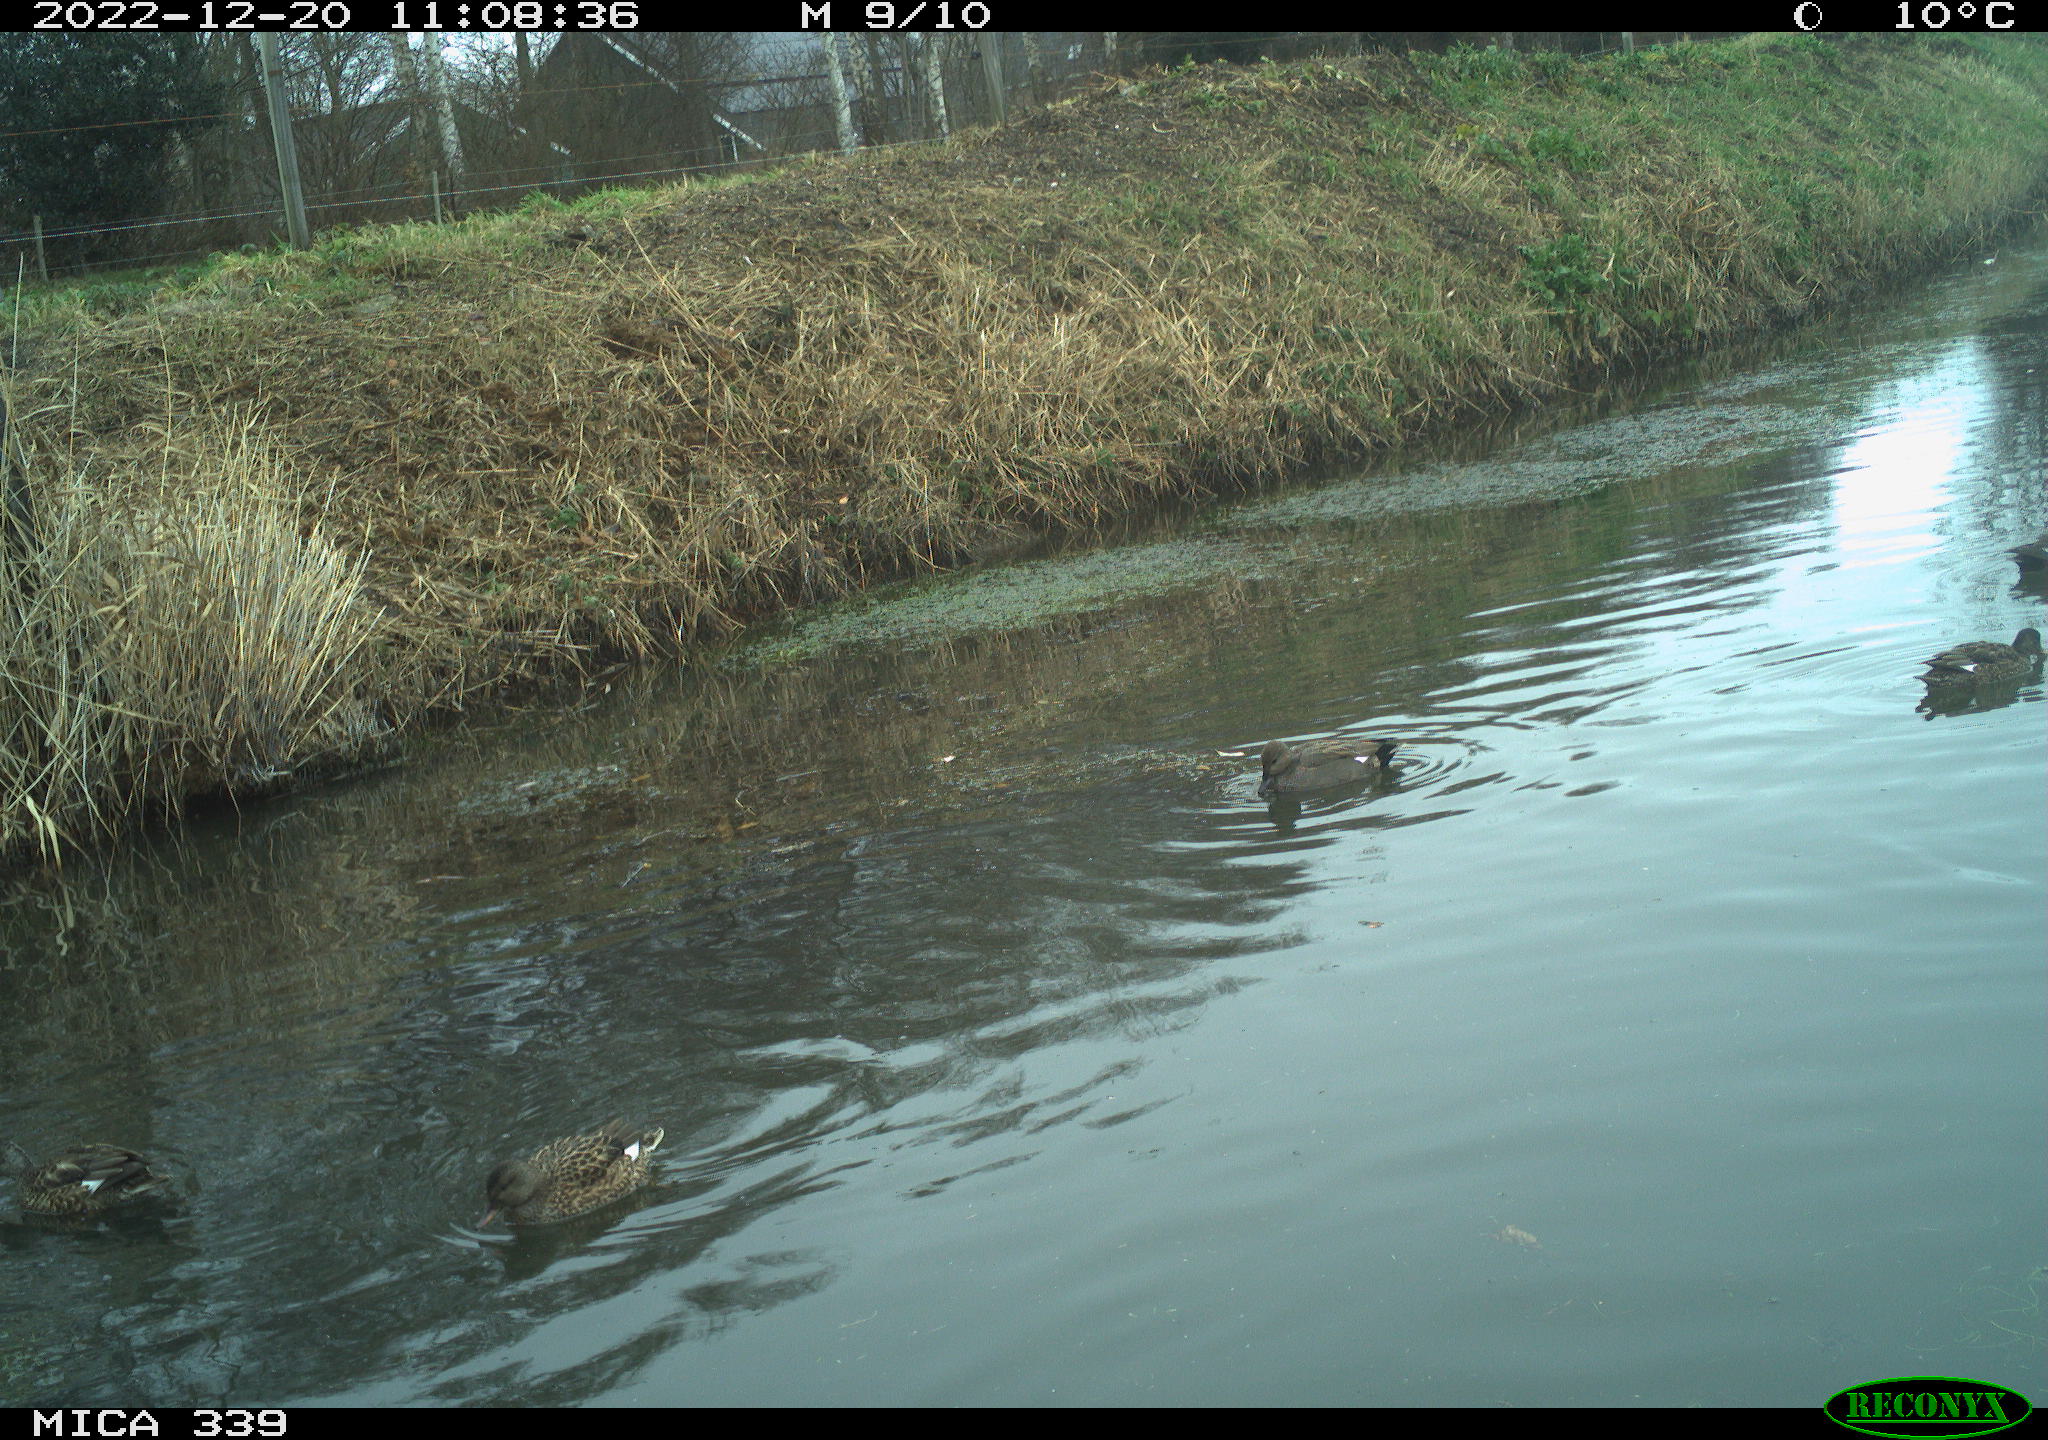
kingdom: Animalia
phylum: Chordata
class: Aves
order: Anseriformes
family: Anatidae
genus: Anas
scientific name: Anas
